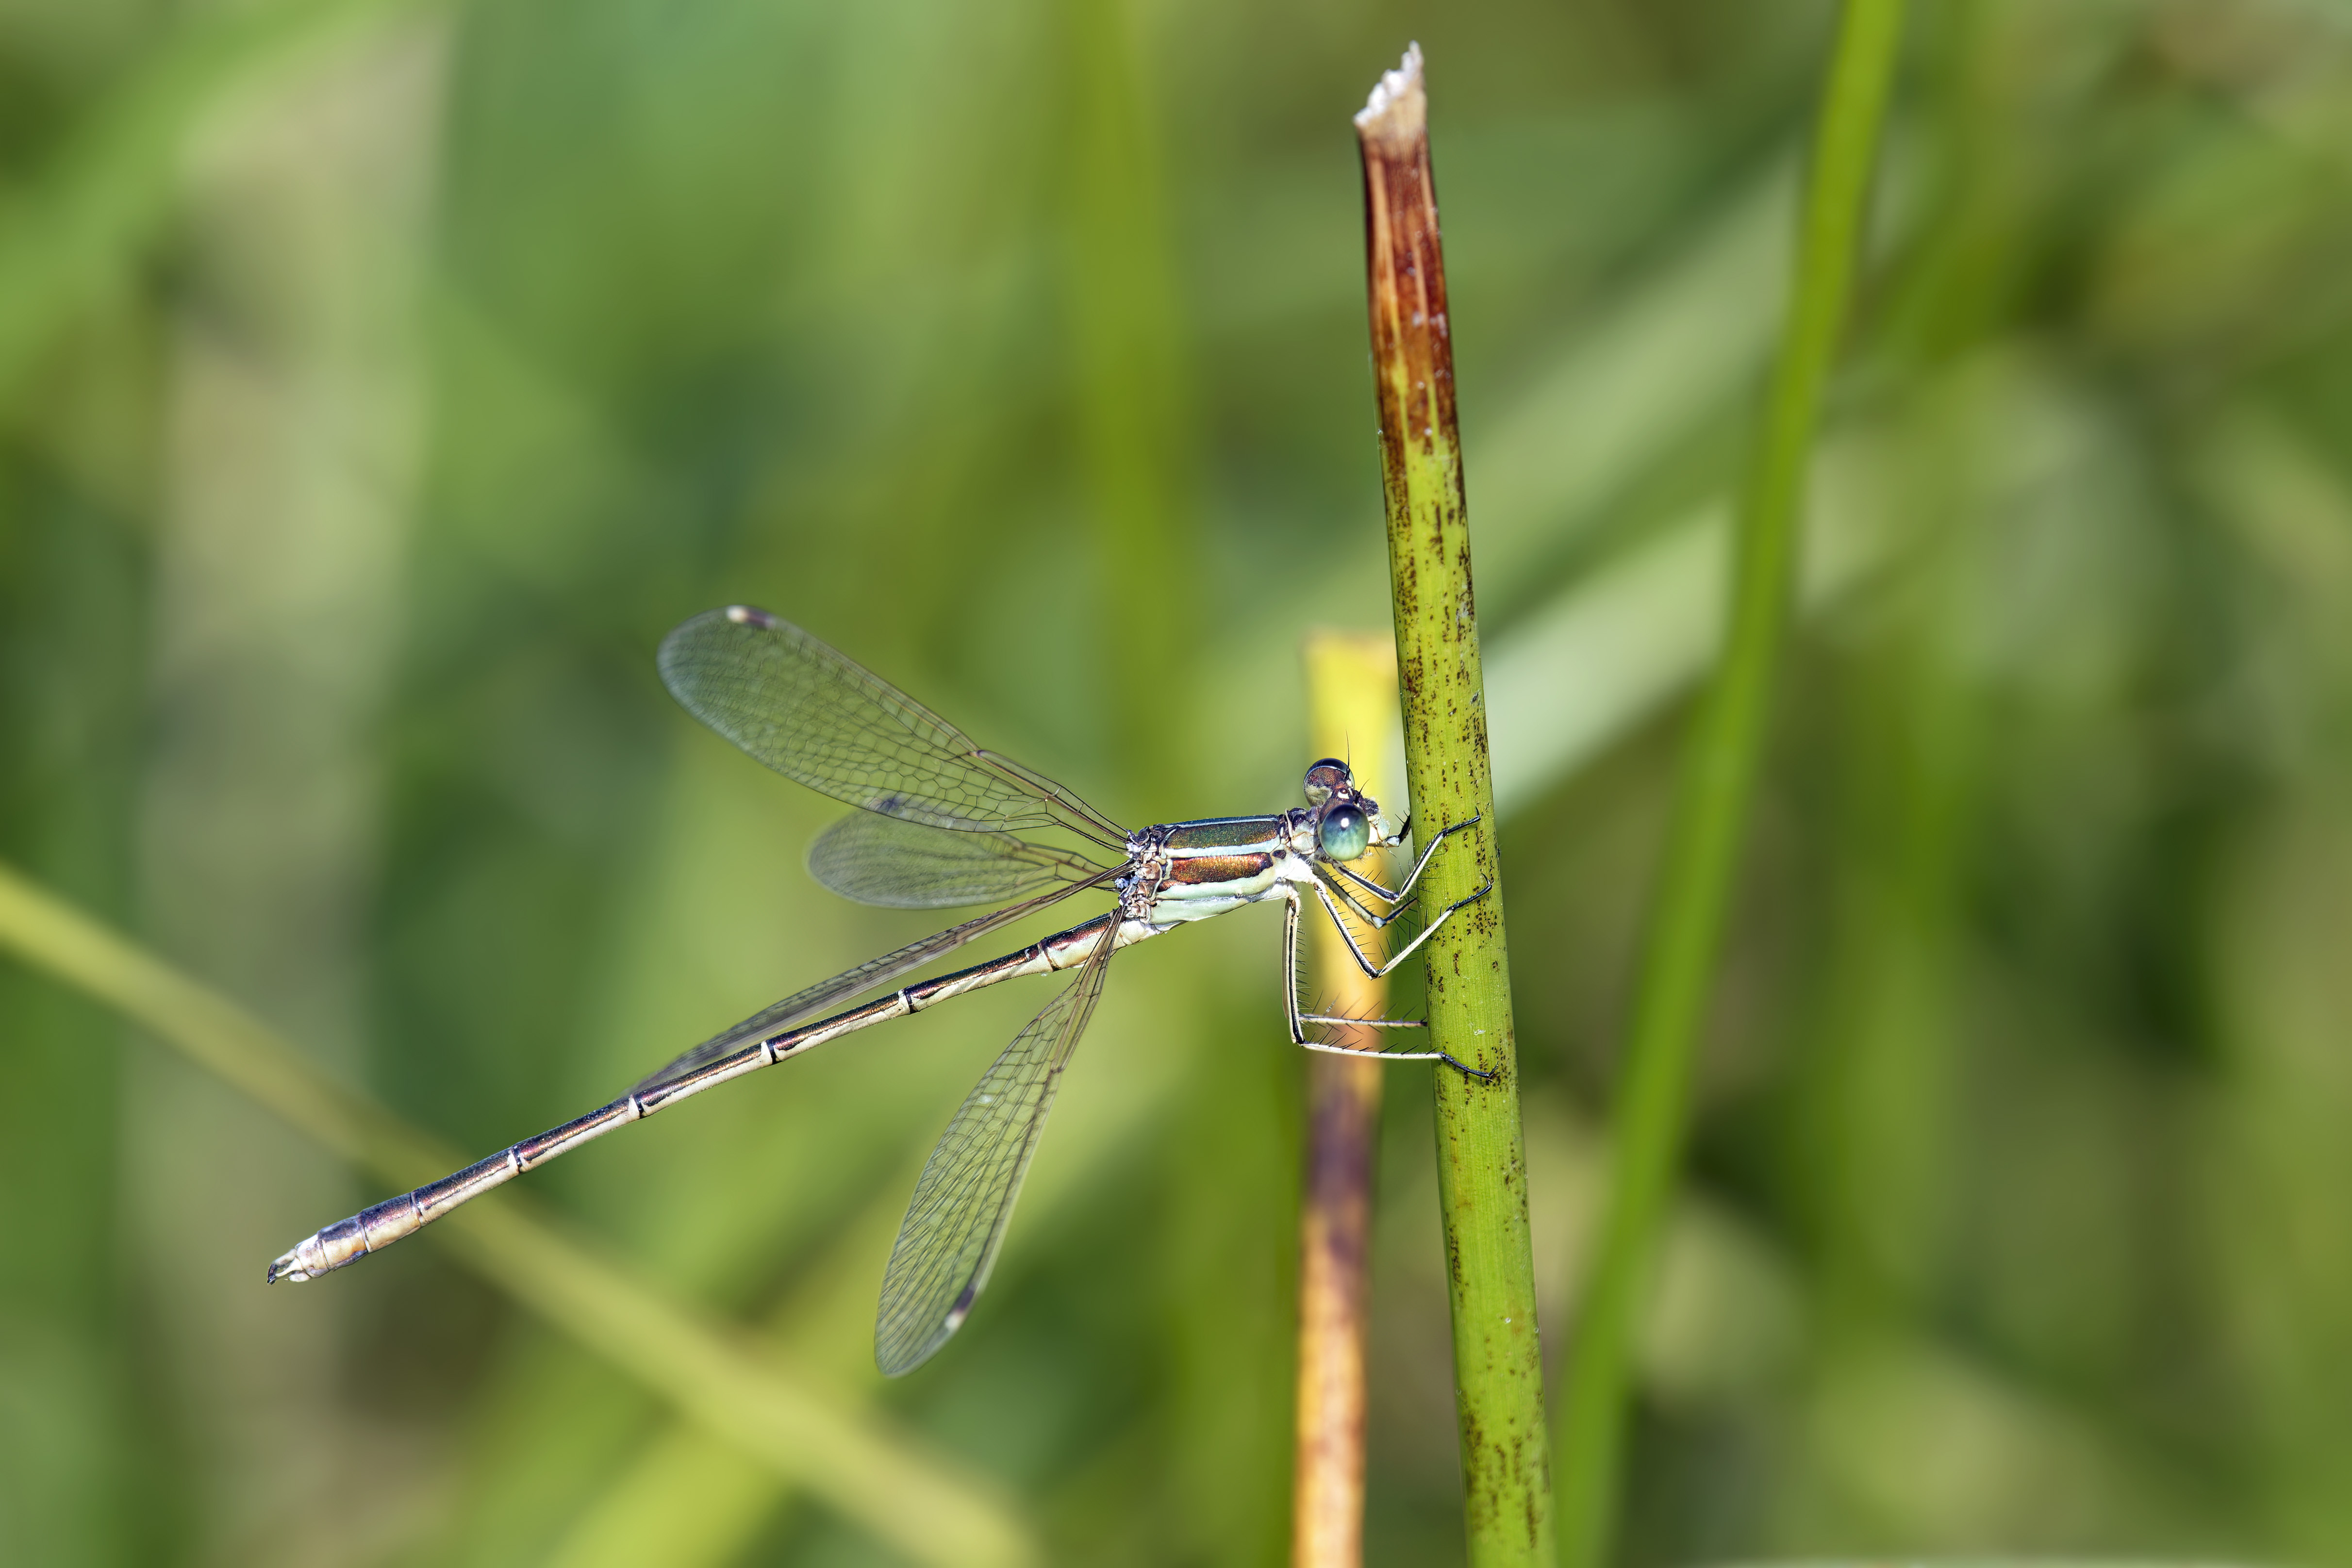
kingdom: Animalia
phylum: Arthropoda
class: Insecta
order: Odonata
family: Lestidae
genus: Lestes
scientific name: Lestes barbarus
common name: Sydlig kobbervandnymfe
